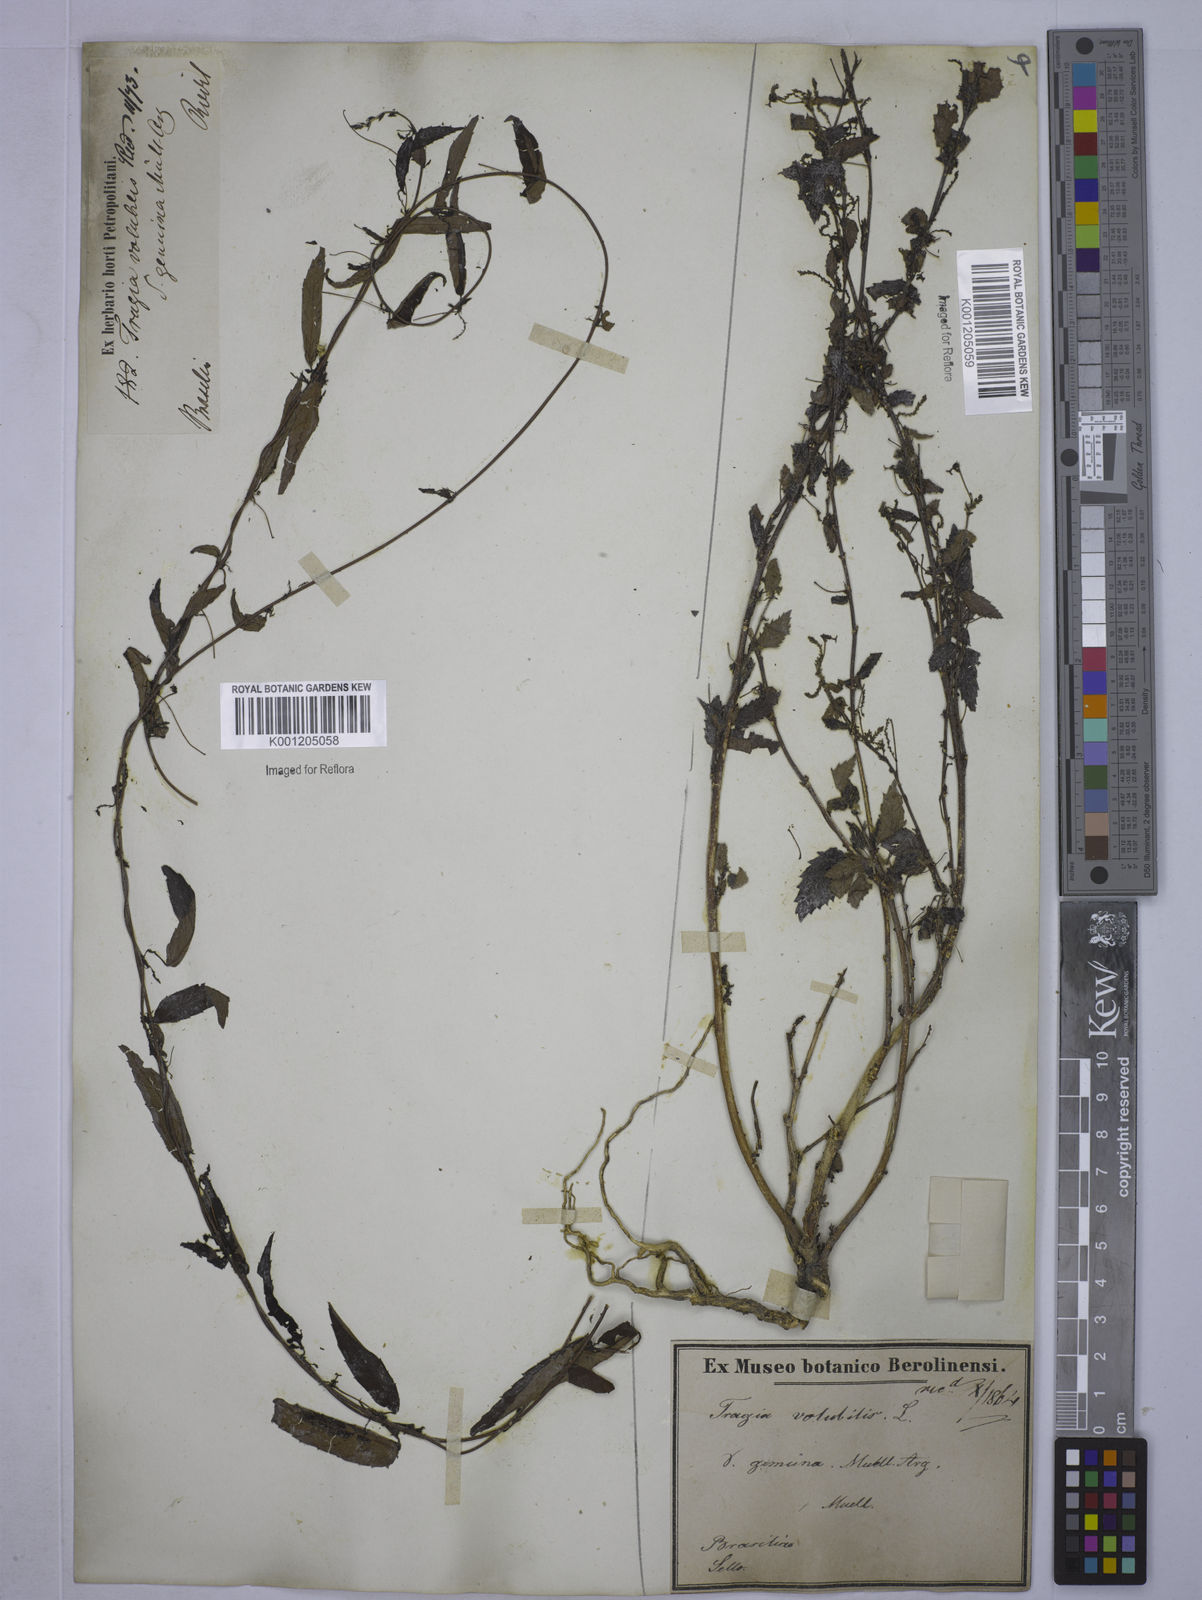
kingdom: Plantae
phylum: Tracheophyta
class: Magnoliopsida
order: Malpighiales
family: Euphorbiaceae
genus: Tragia
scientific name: Tragia volubilis
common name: Twining cow-itch
